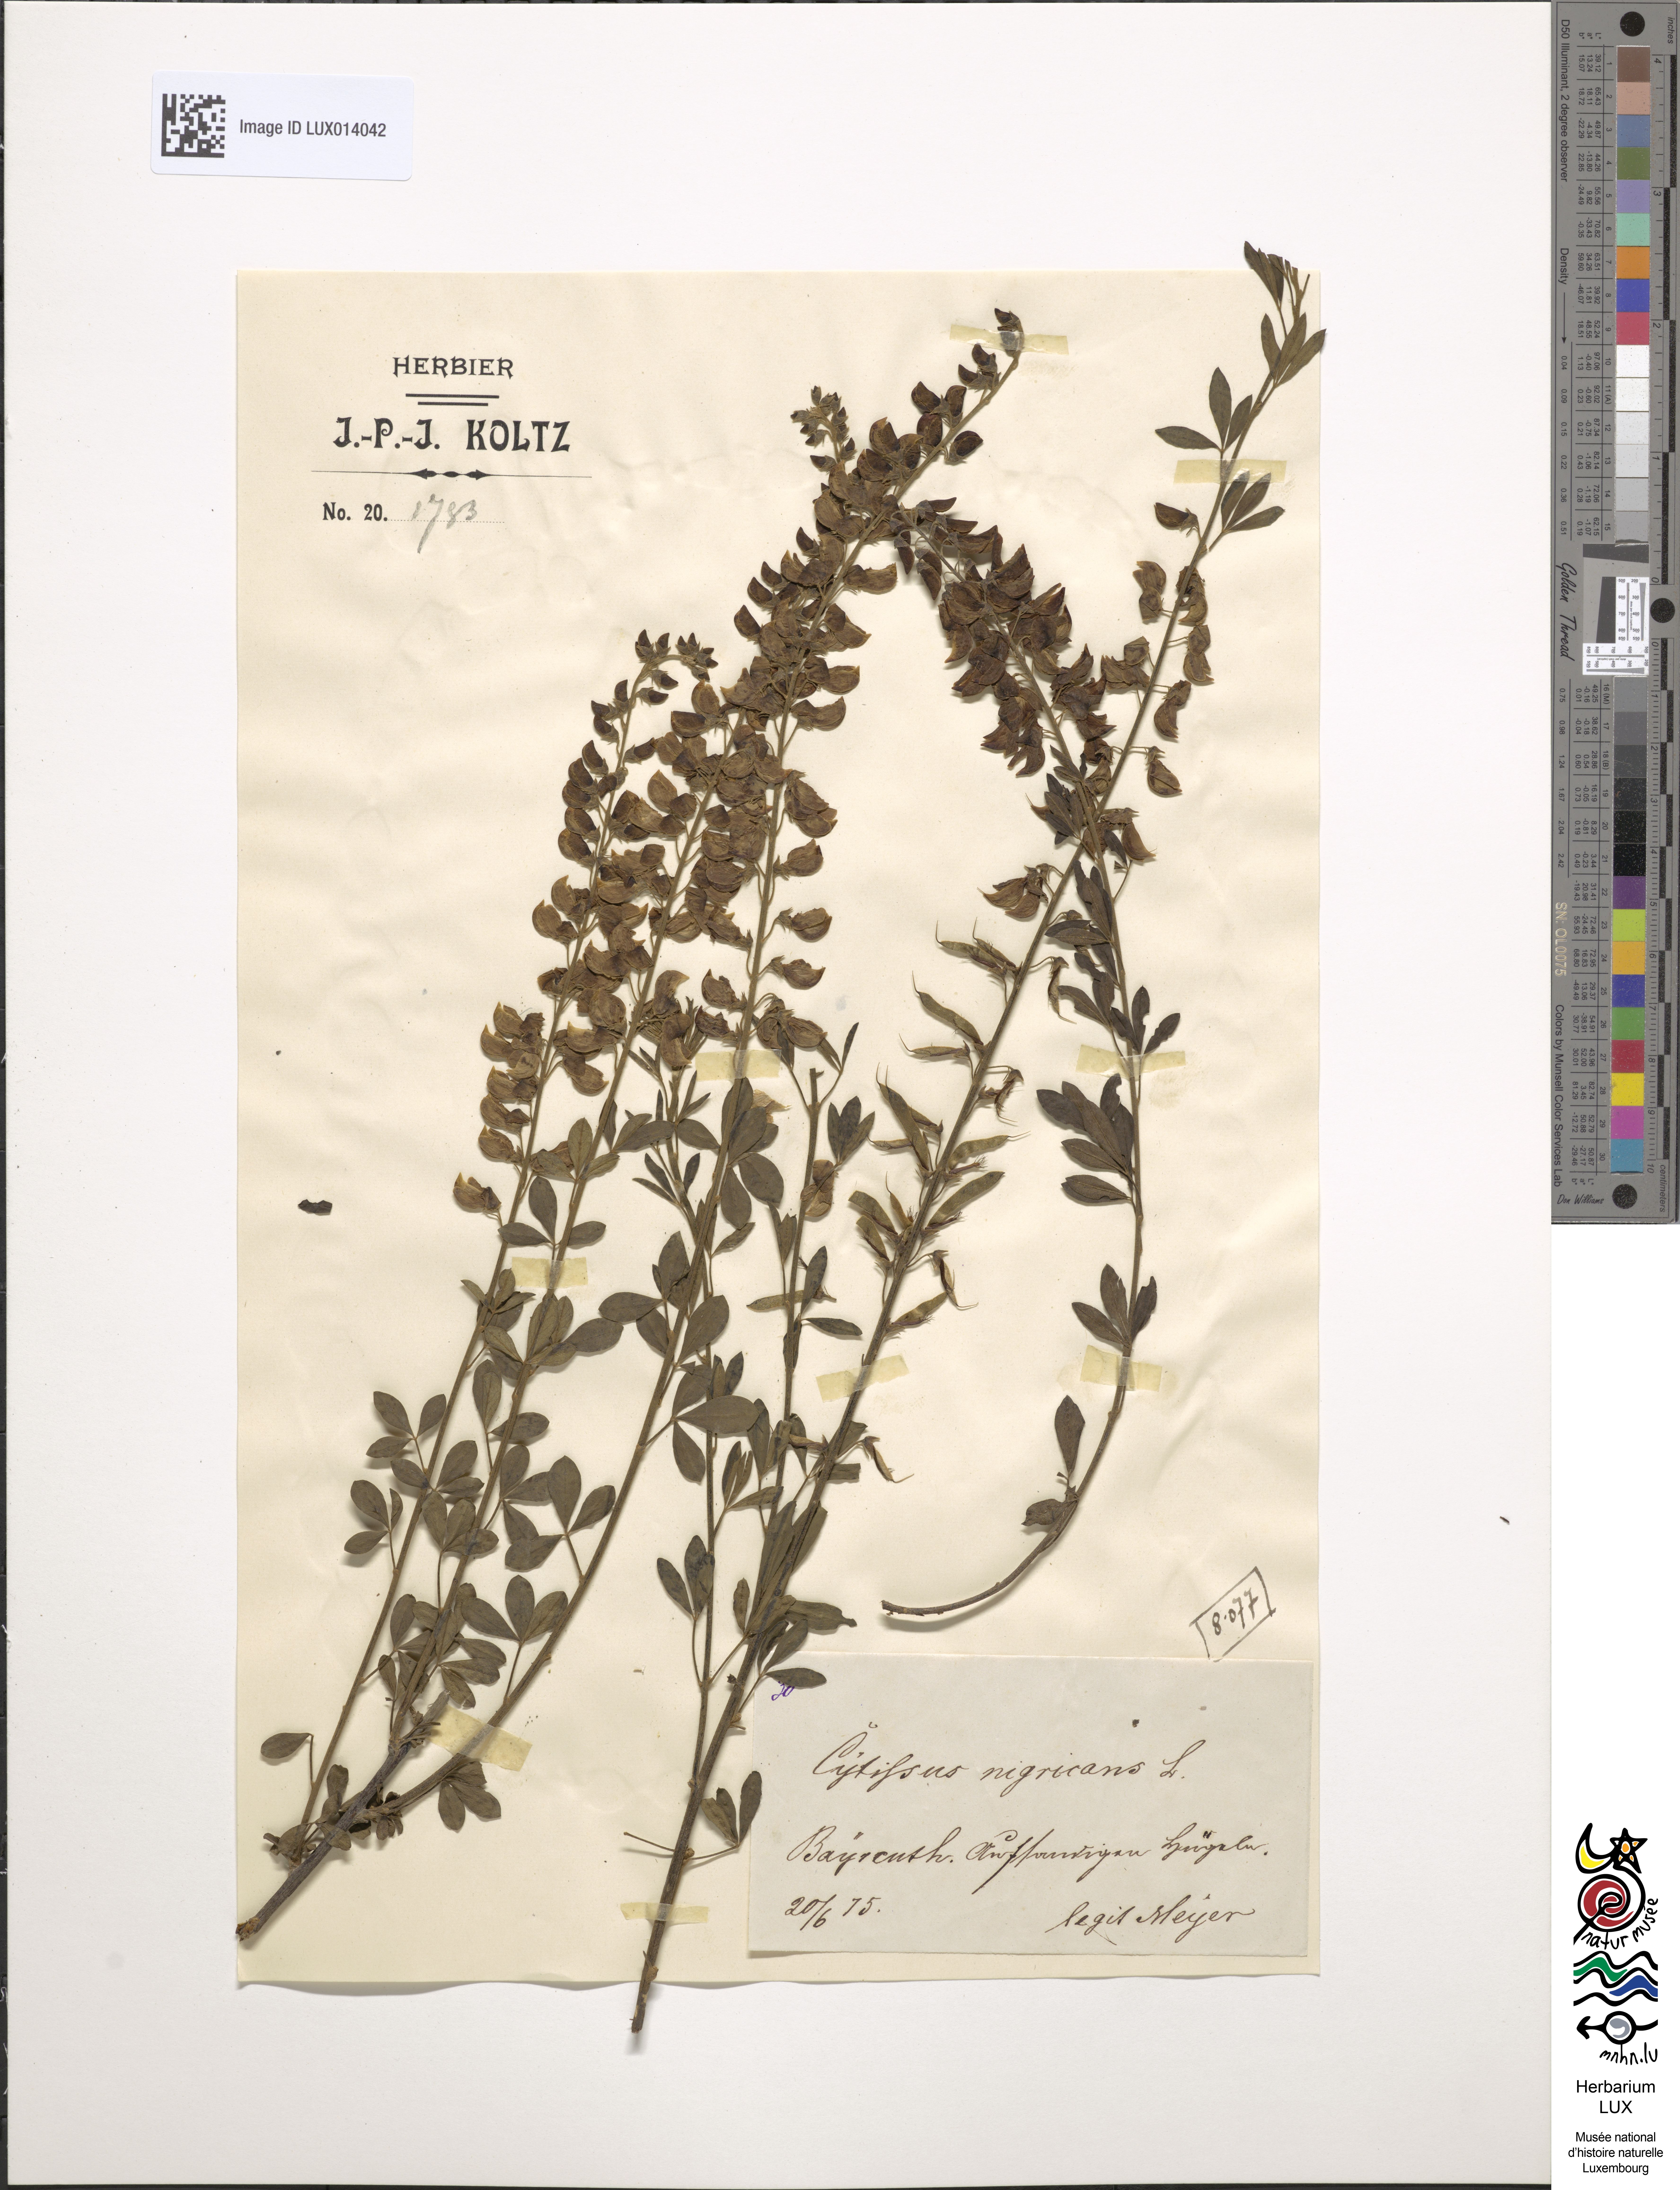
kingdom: Plantae
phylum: Tracheophyta
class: Magnoliopsida
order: Fabales
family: Fabaceae
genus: Cytisus
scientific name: Cytisus nigricans
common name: Black broom
